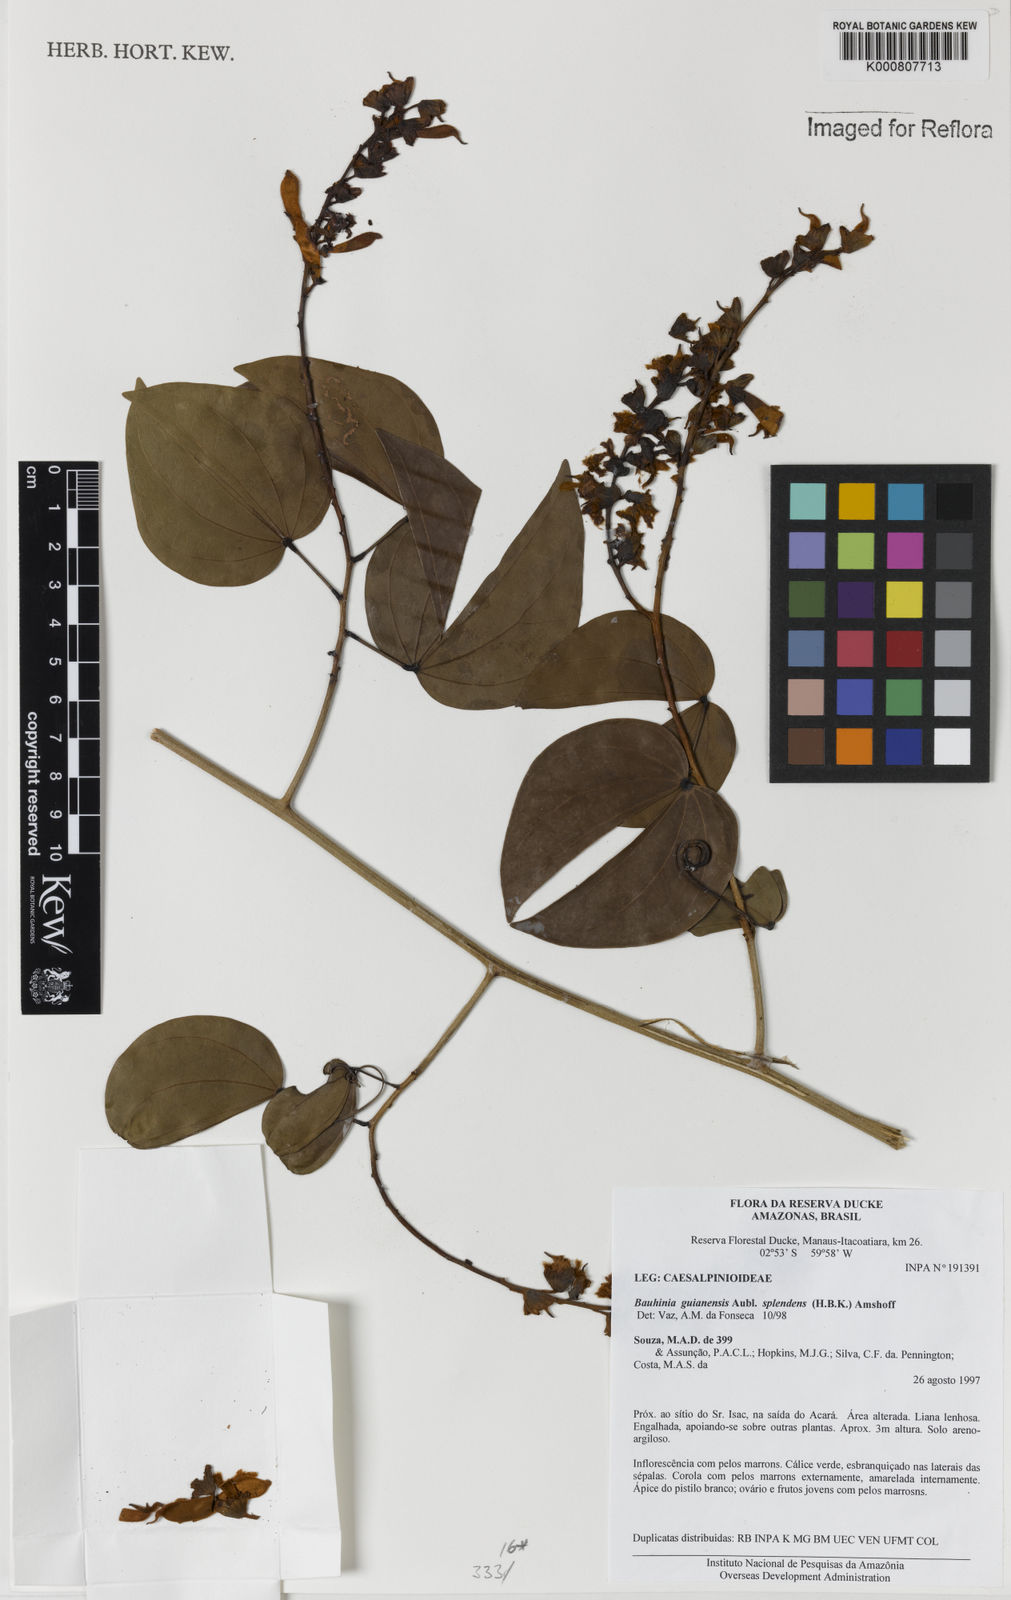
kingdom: Plantae
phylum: Tracheophyta
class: Magnoliopsida
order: Fabales
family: Fabaceae
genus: Schnella
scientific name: Schnella splendens
